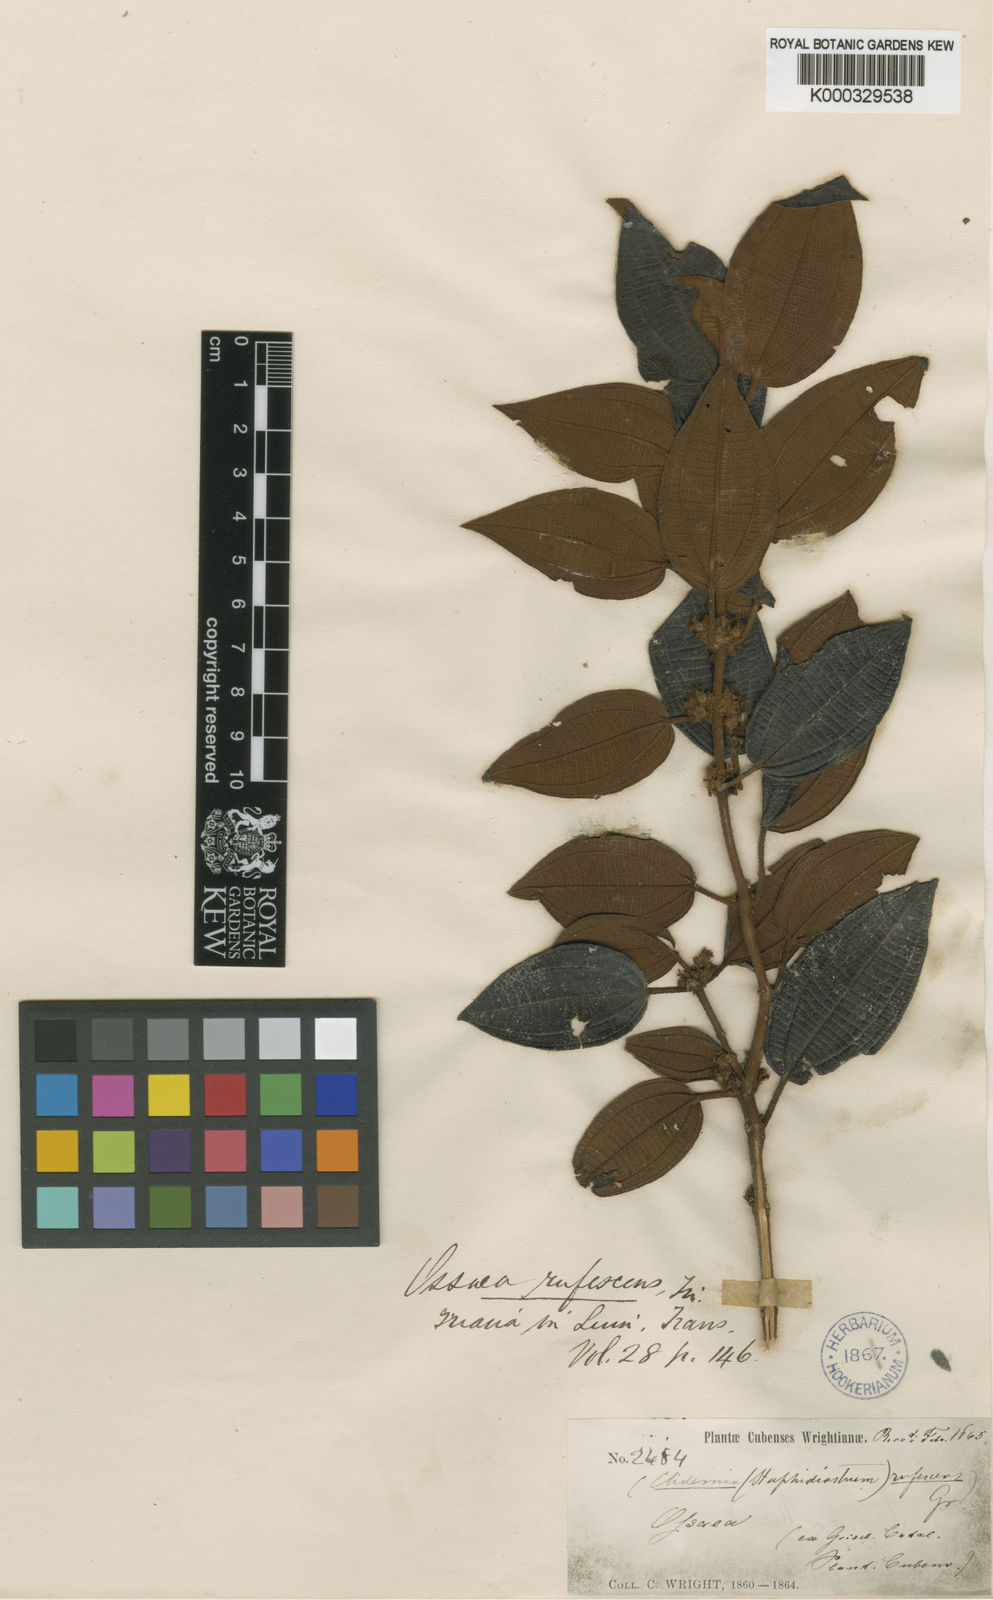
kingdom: Plantae
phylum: Tracheophyta
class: Magnoliopsida
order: Myrtales
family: Melastomataceae
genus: Ossaea
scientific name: Ossaea
